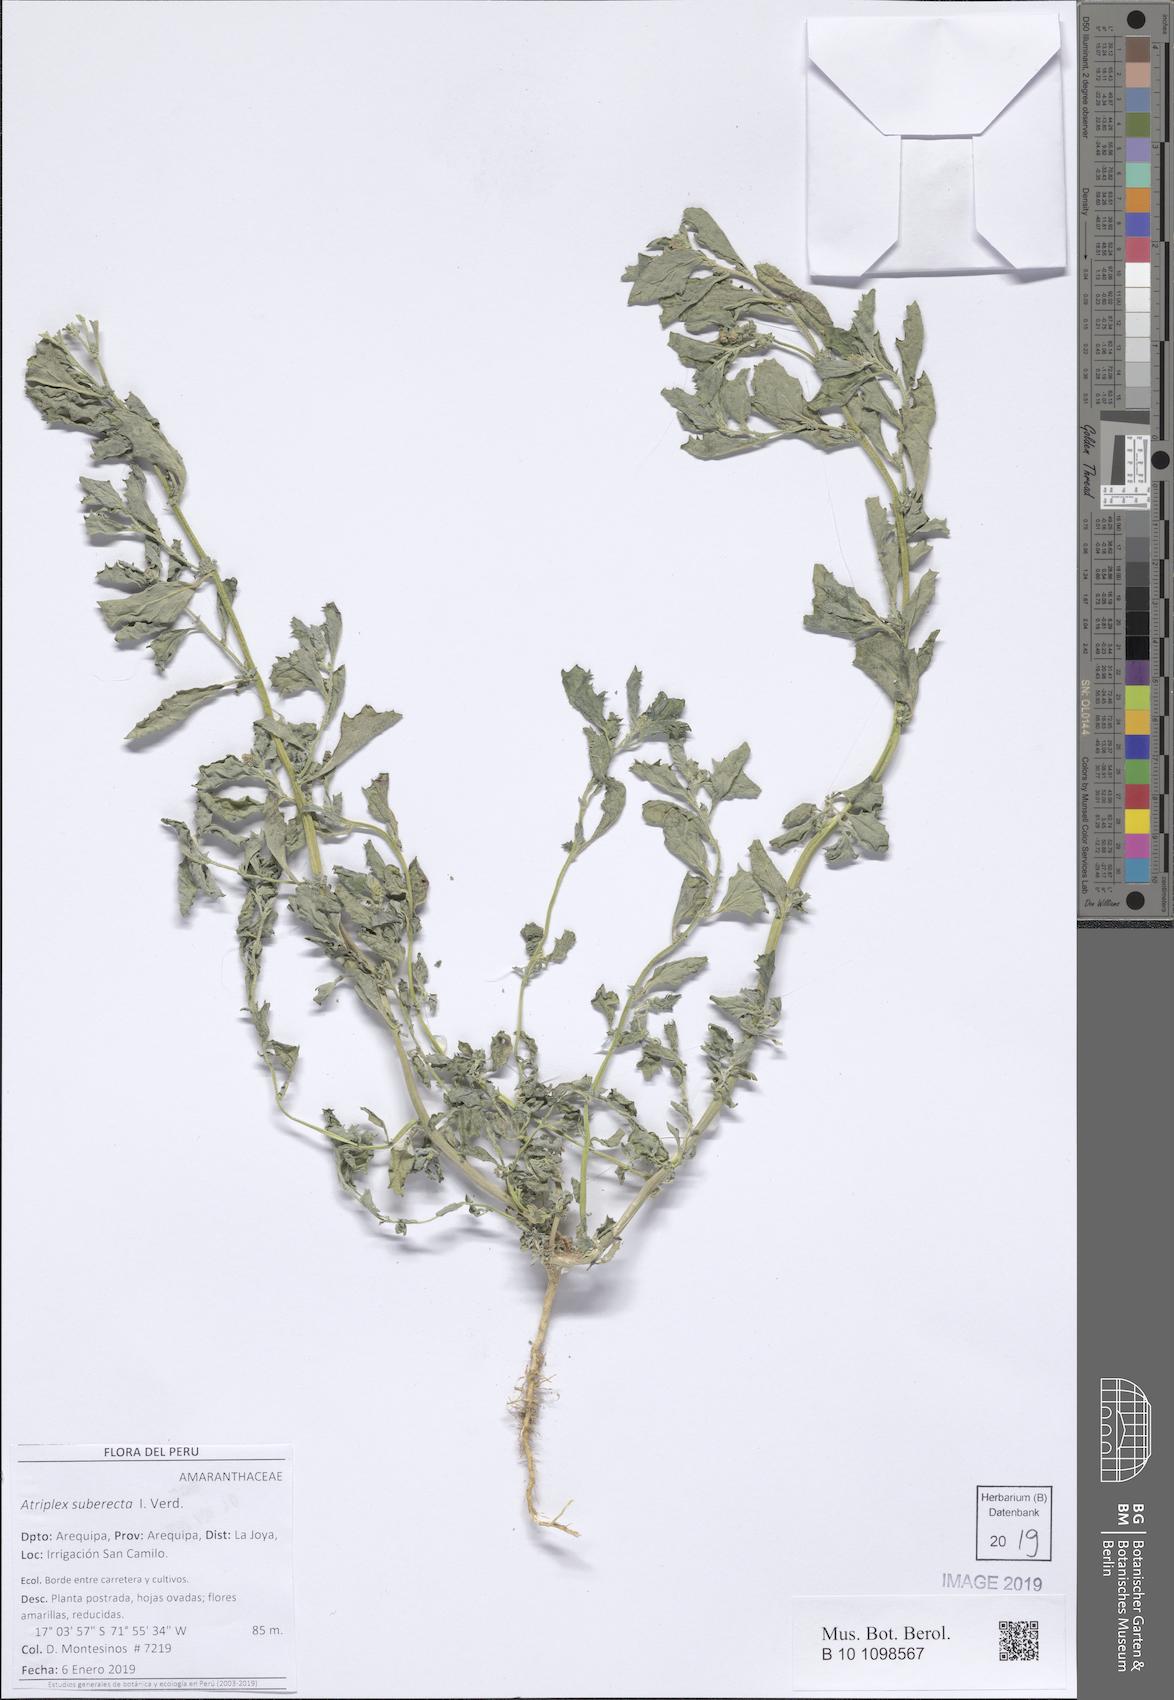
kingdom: Plantae
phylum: Tracheophyta
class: Magnoliopsida
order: Caryophyllales
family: Amaranthaceae
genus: Atriplex
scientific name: Atriplex suberecta
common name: Australian orache
